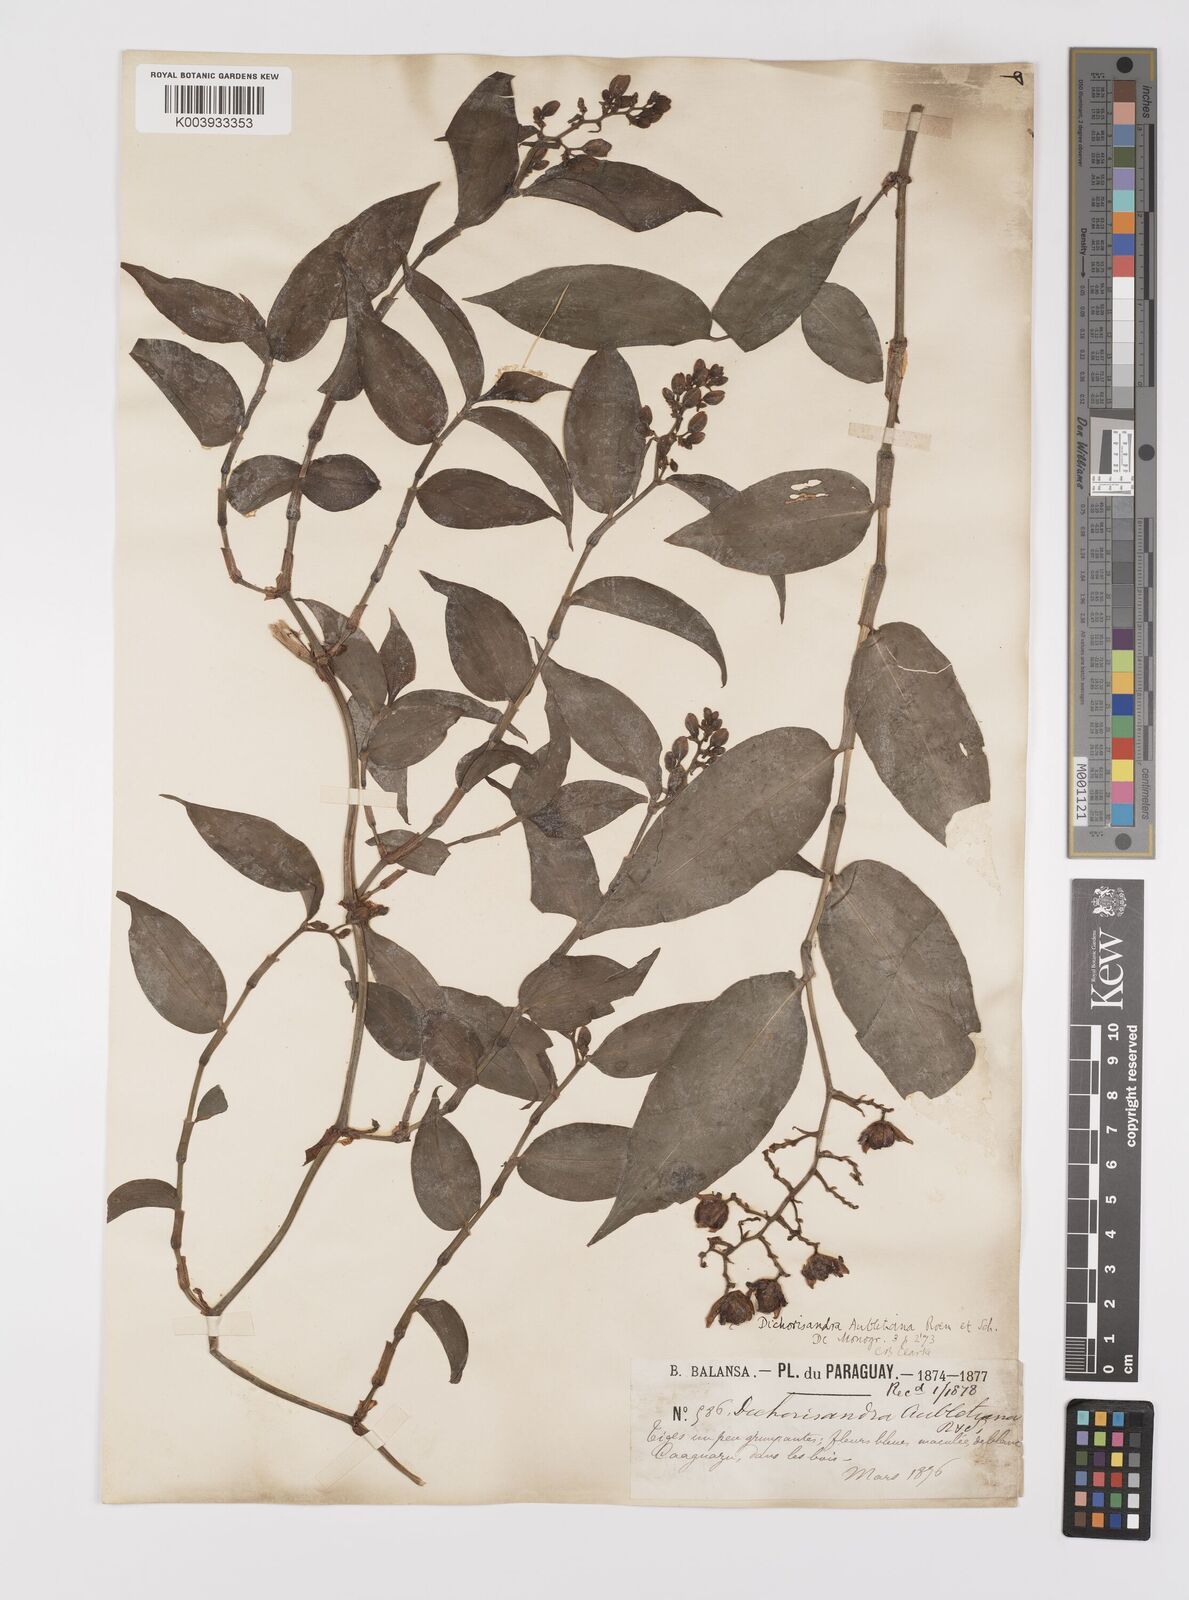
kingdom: Plantae
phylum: Tracheophyta
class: Liliopsida
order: Commelinales
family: Commelinaceae
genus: Dichorisandra
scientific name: Dichorisandra hexandra
